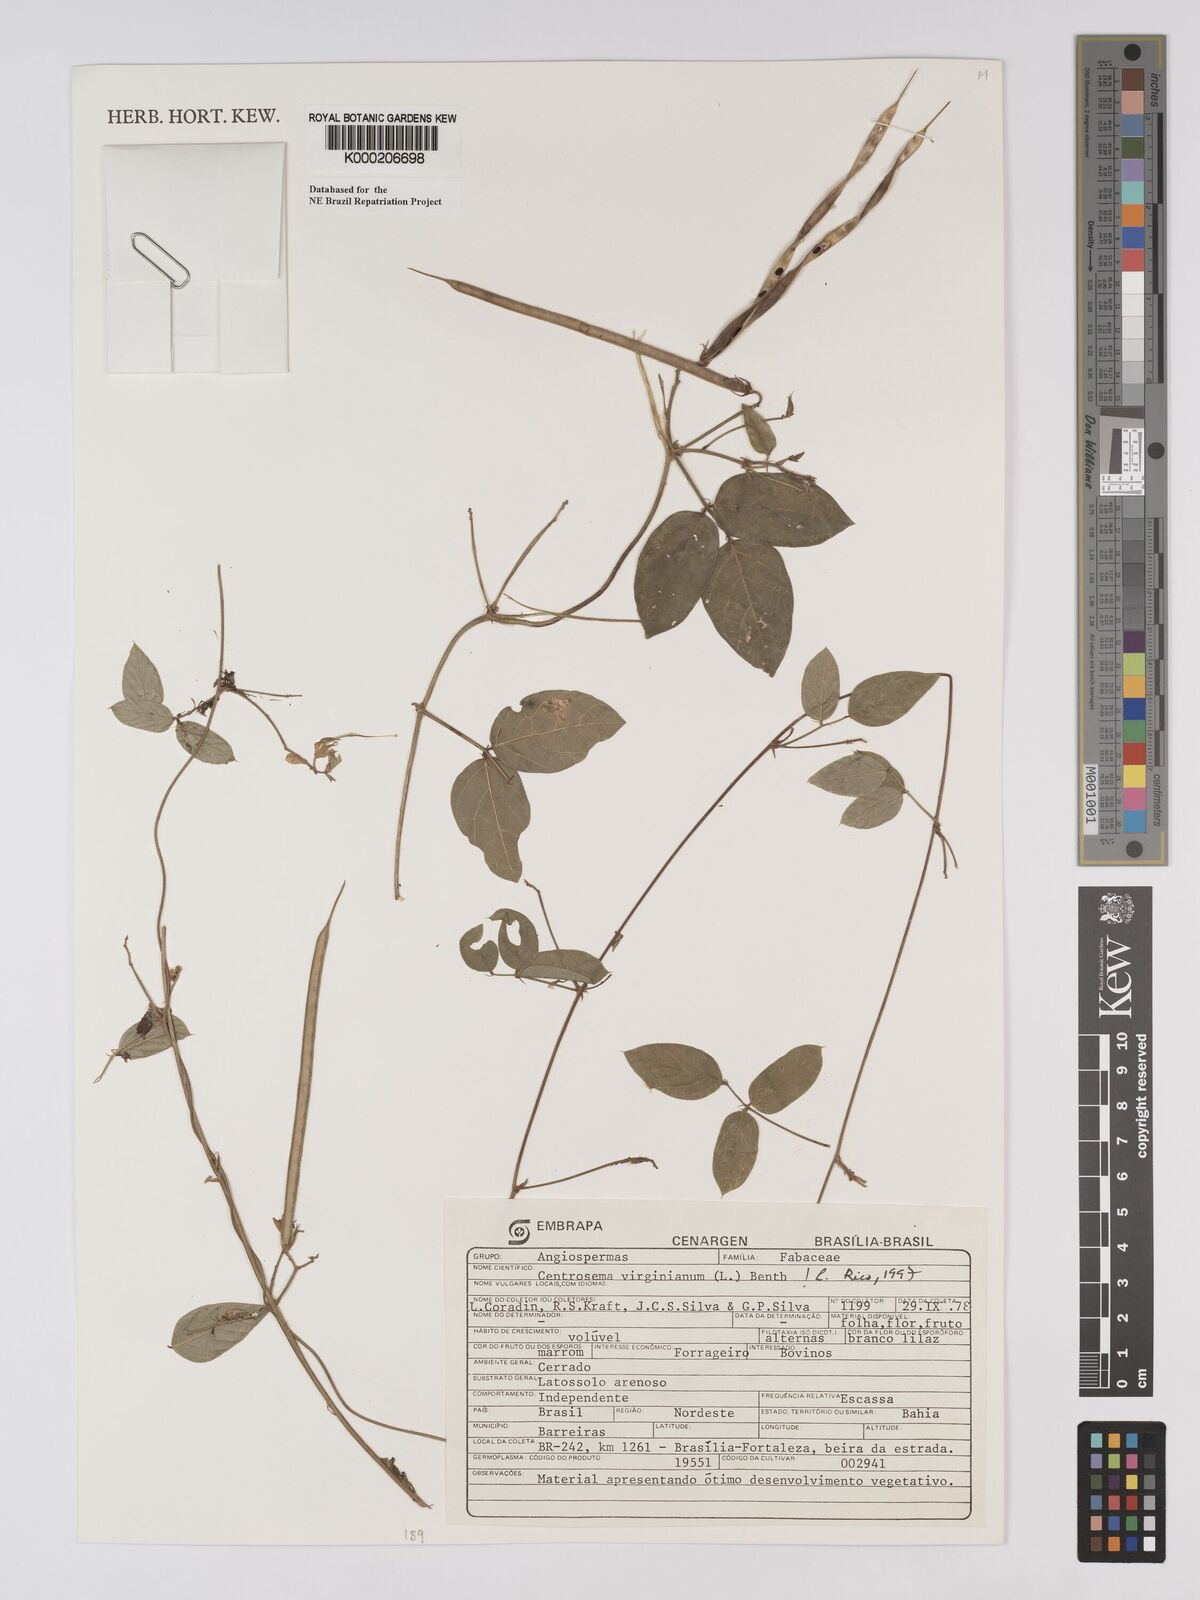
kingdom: Plantae
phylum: Tracheophyta
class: Magnoliopsida
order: Fabales
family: Fabaceae
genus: Centrosema
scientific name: Centrosema virginianum
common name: Butterfly-pea
